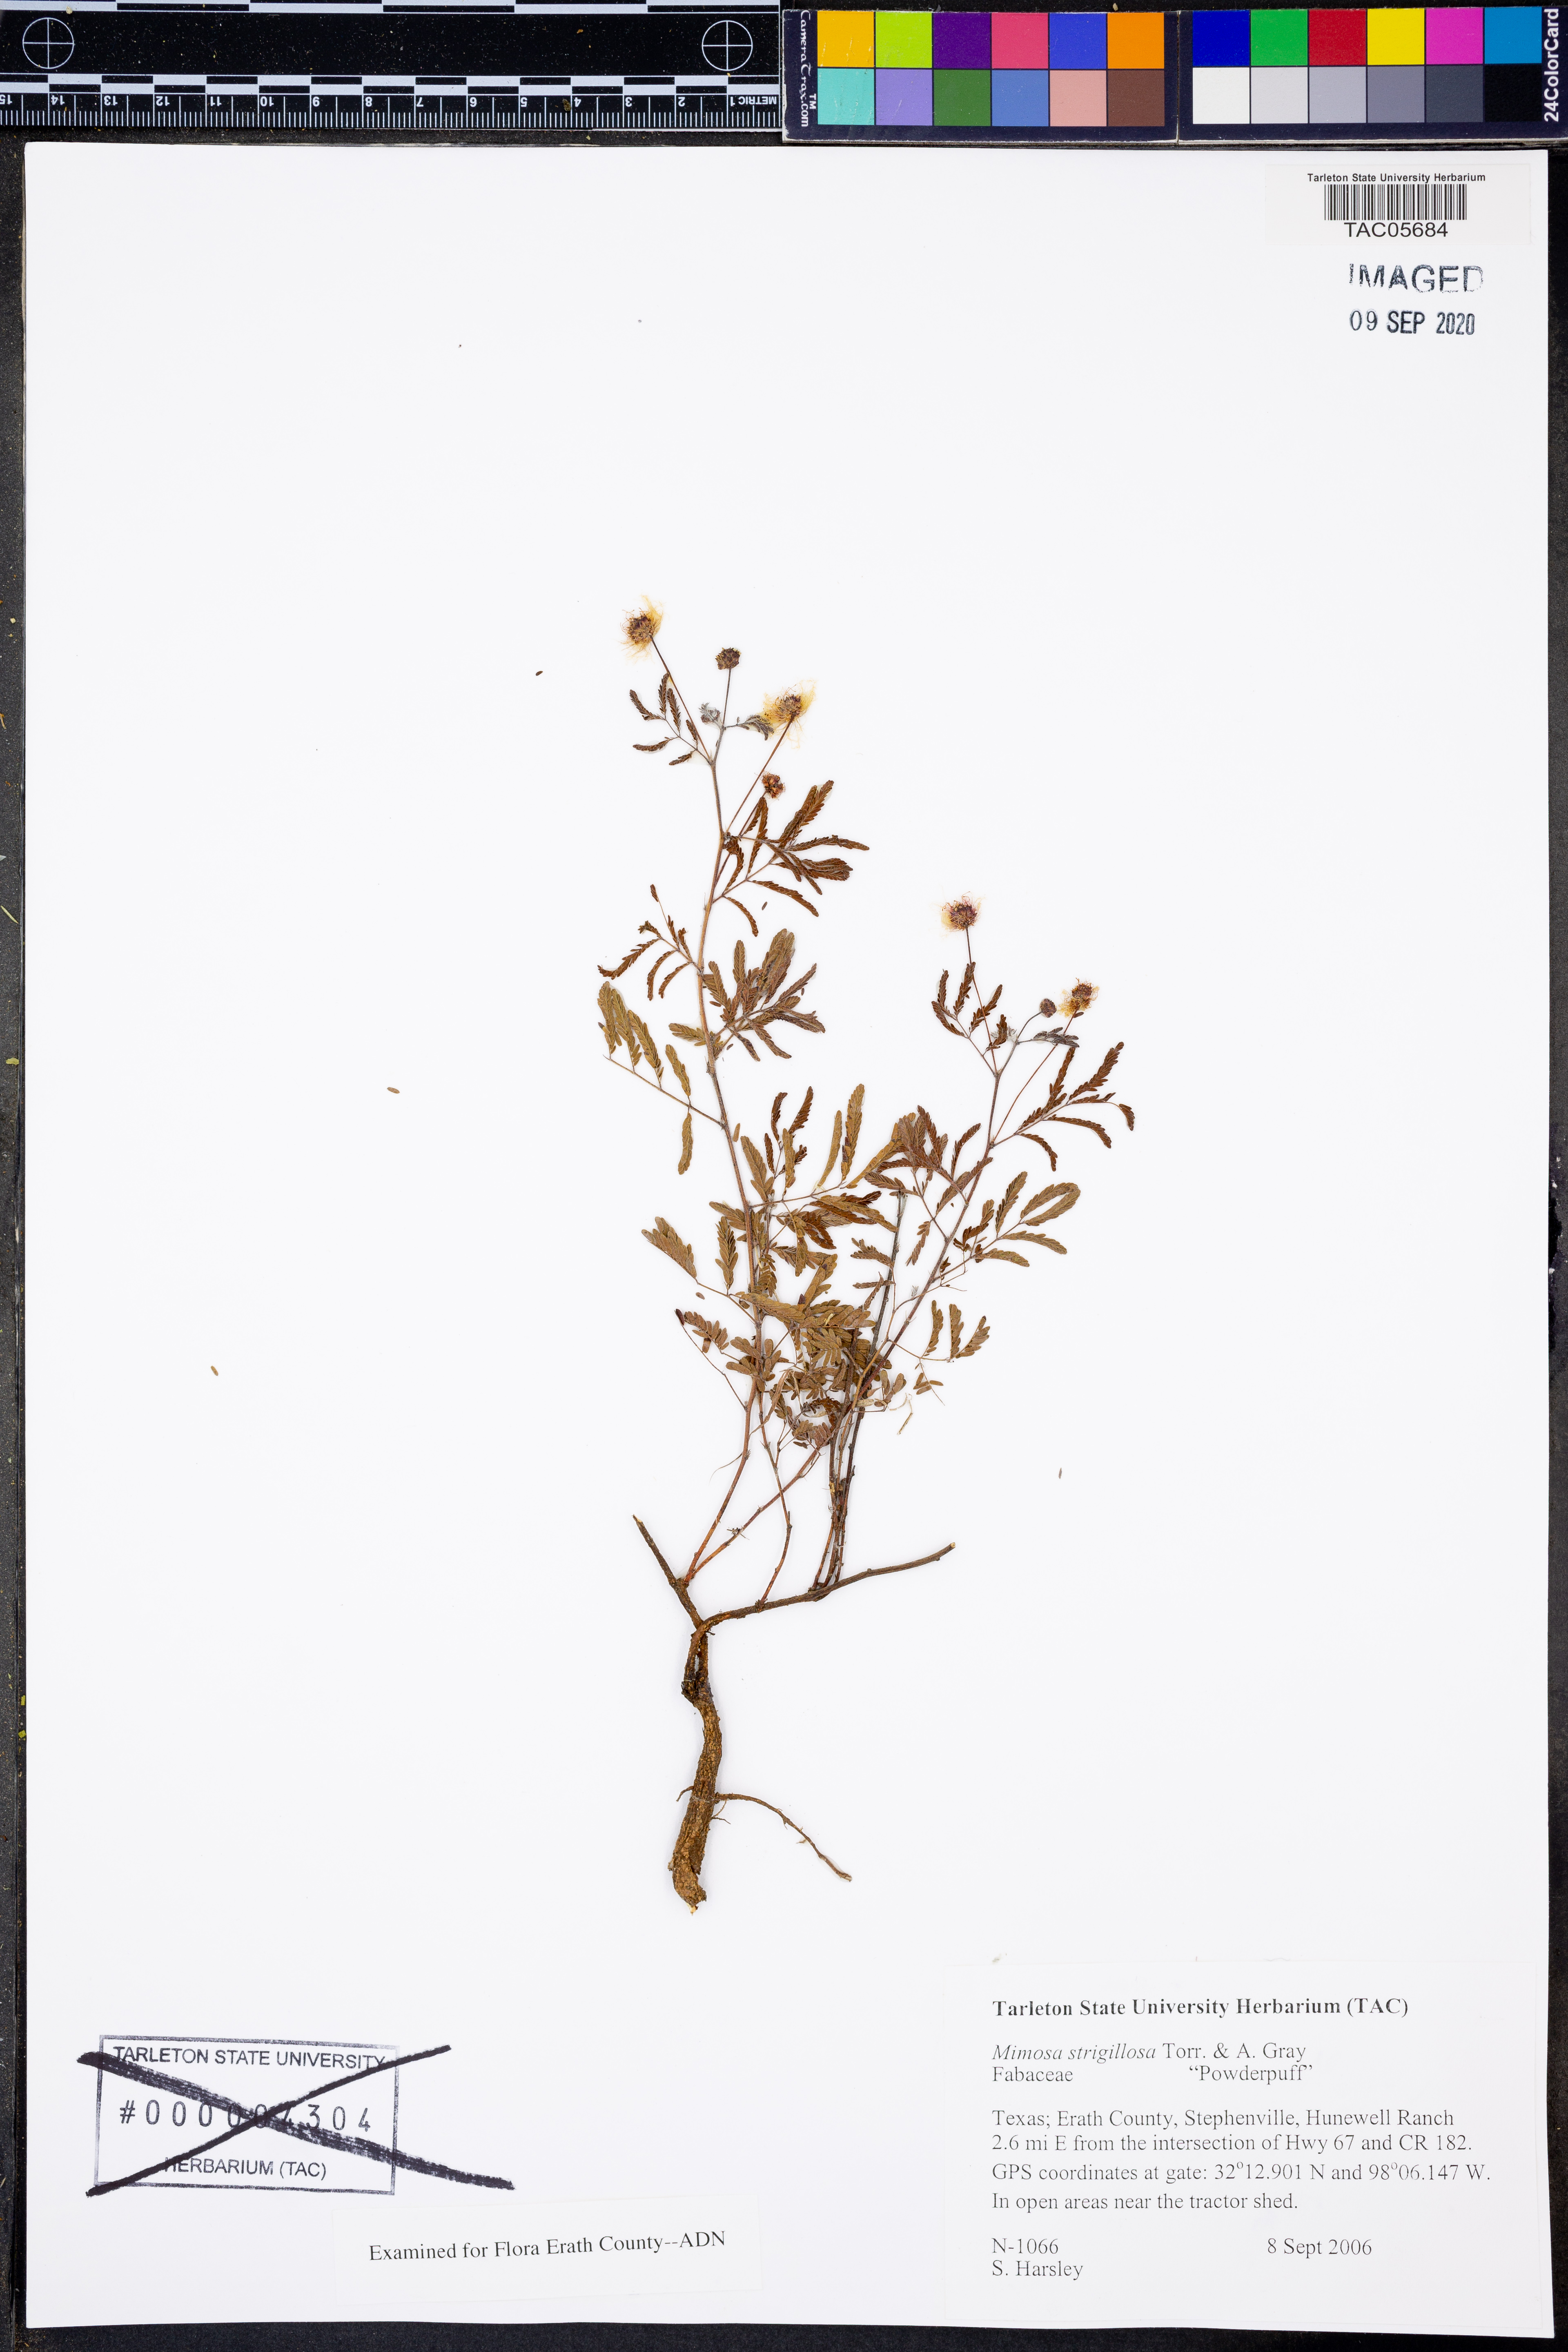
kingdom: Plantae
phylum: Tracheophyta
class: Magnoliopsida
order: Fabales
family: Fabaceae
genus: Mimosa
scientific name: Mimosa strigillosa
